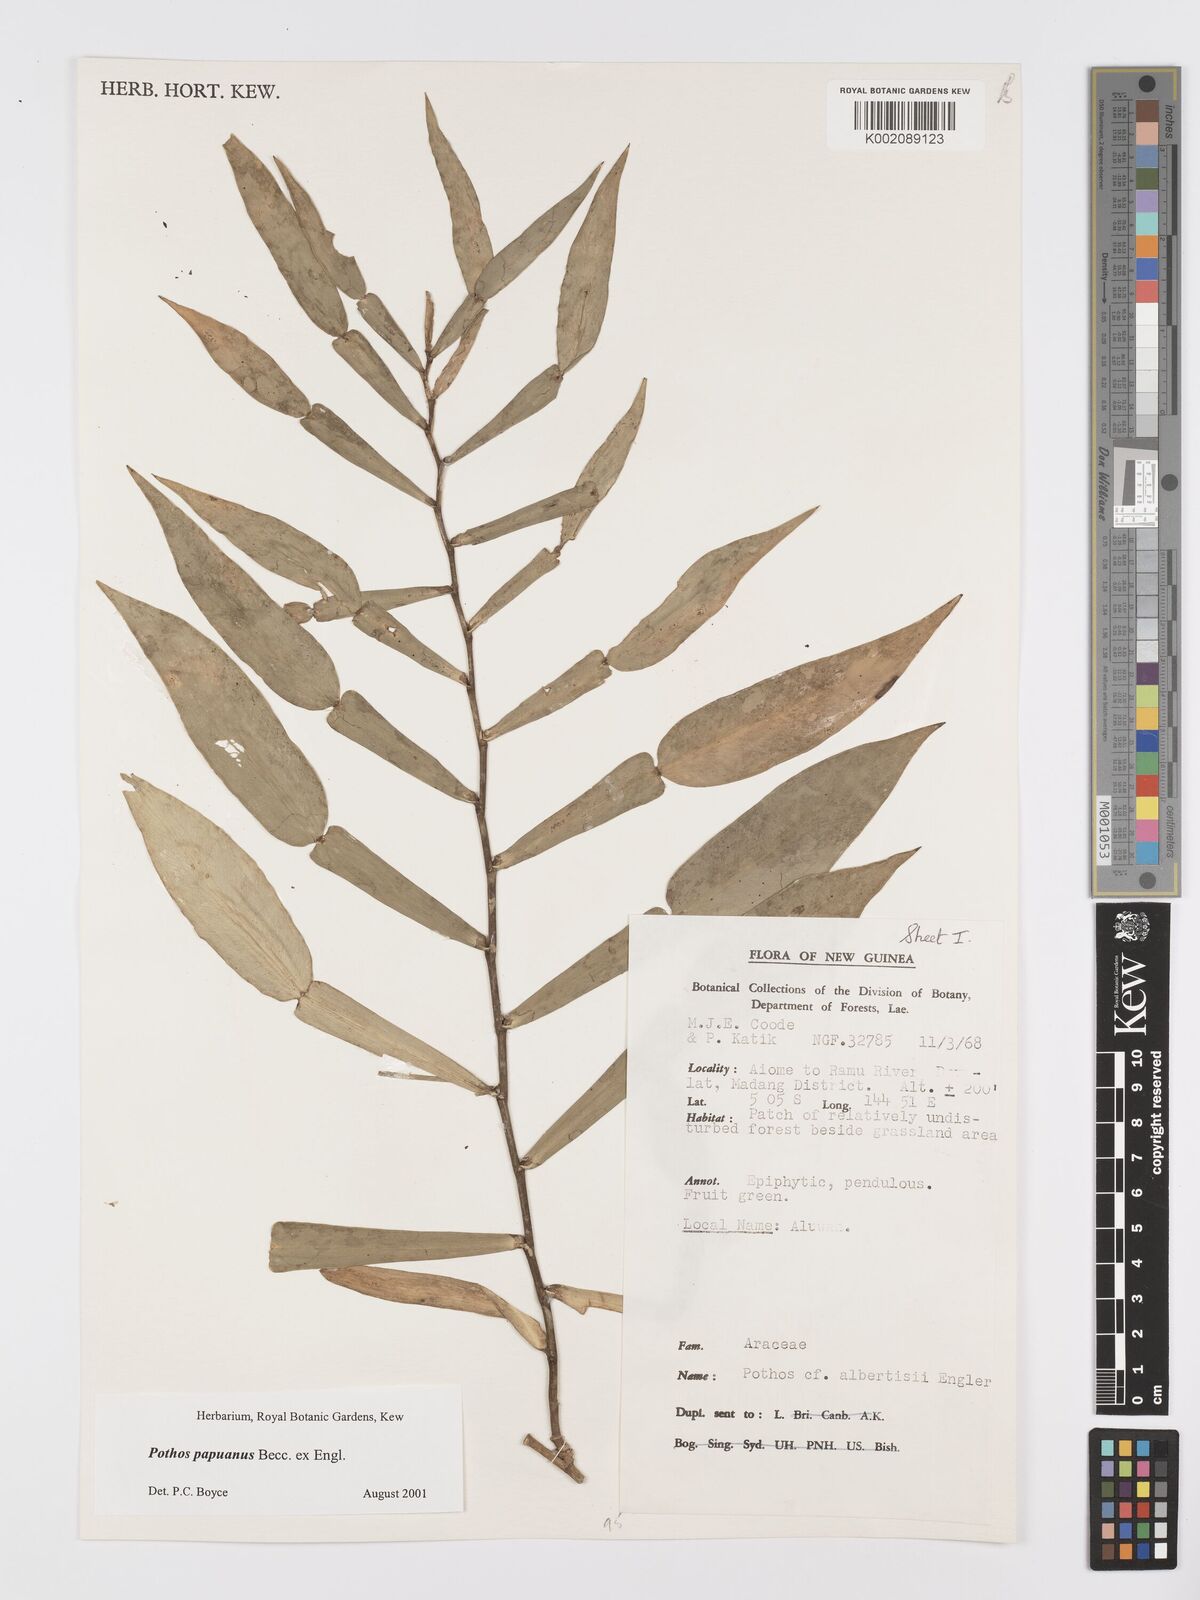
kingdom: Plantae
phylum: Tracheophyta
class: Liliopsida
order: Alismatales
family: Araceae
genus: Pothos
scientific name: Pothos papuanus
